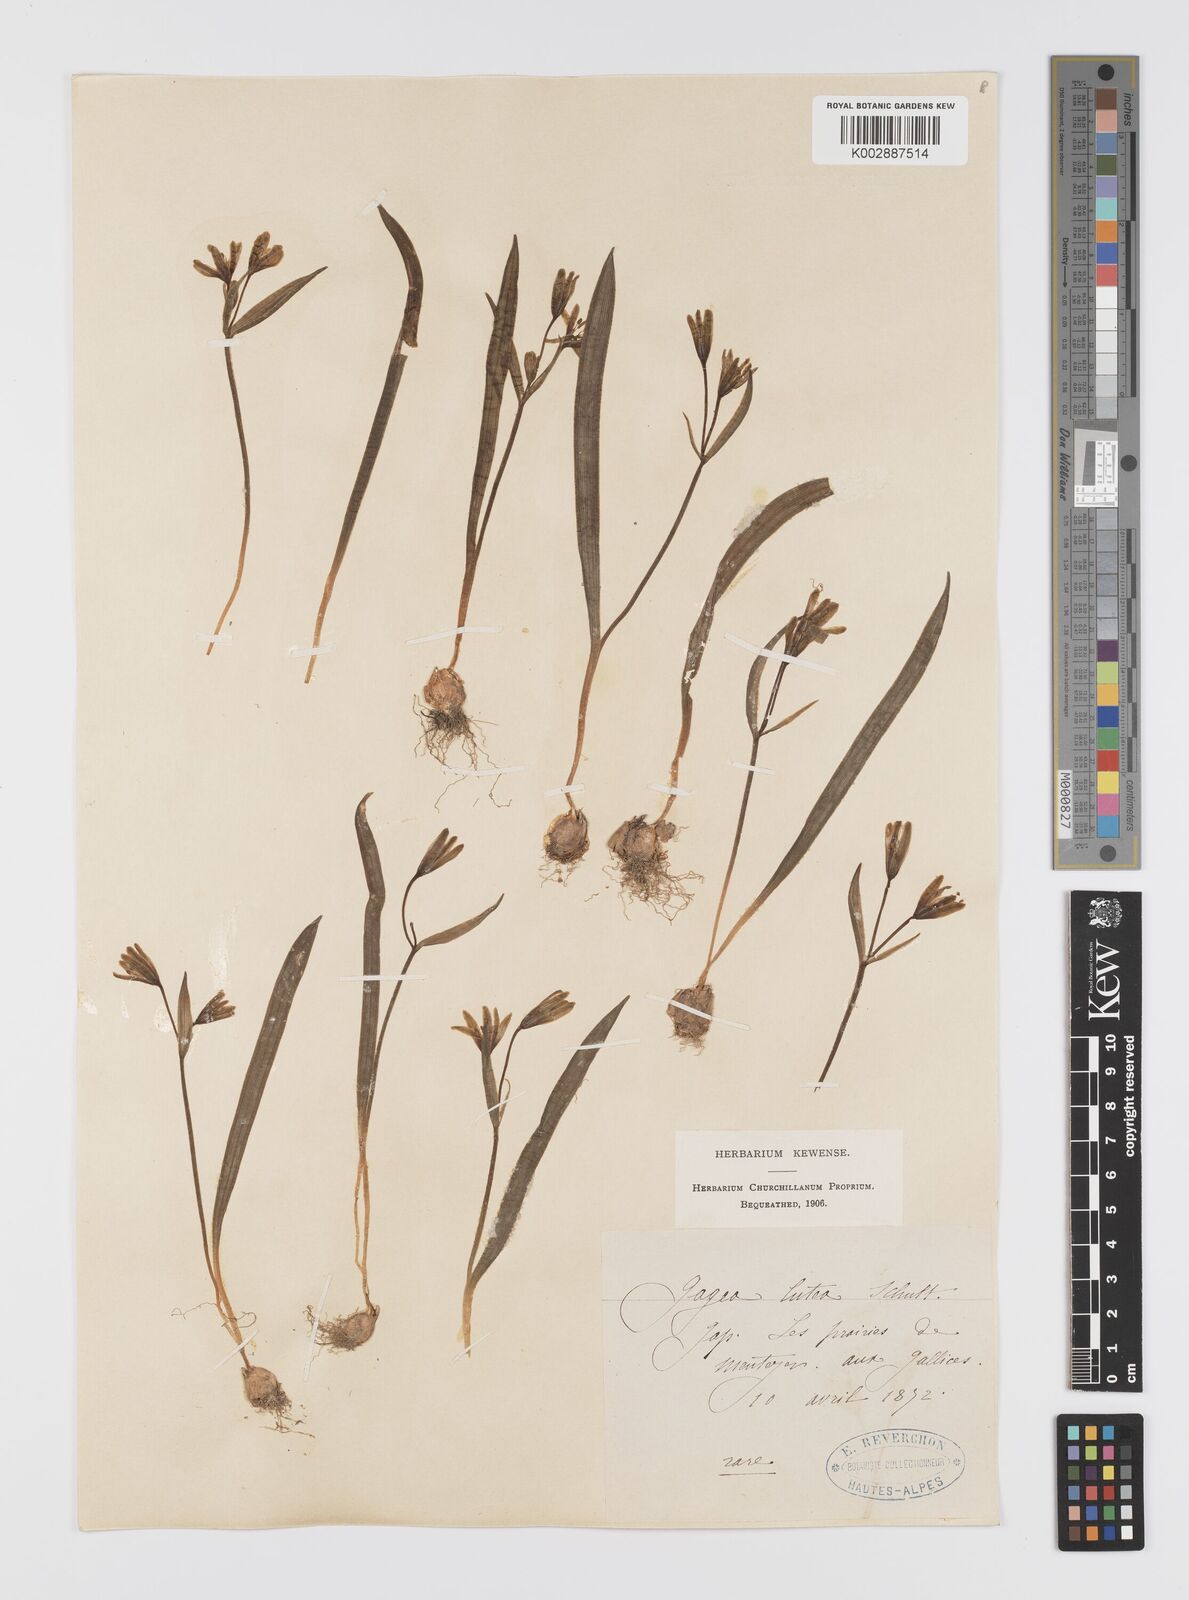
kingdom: Plantae
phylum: Tracheophyta
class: Liliopsida
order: Liliales
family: Liliaceae
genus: Gagea
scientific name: Gagea lutea
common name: Yellow star-of-bethlehem
